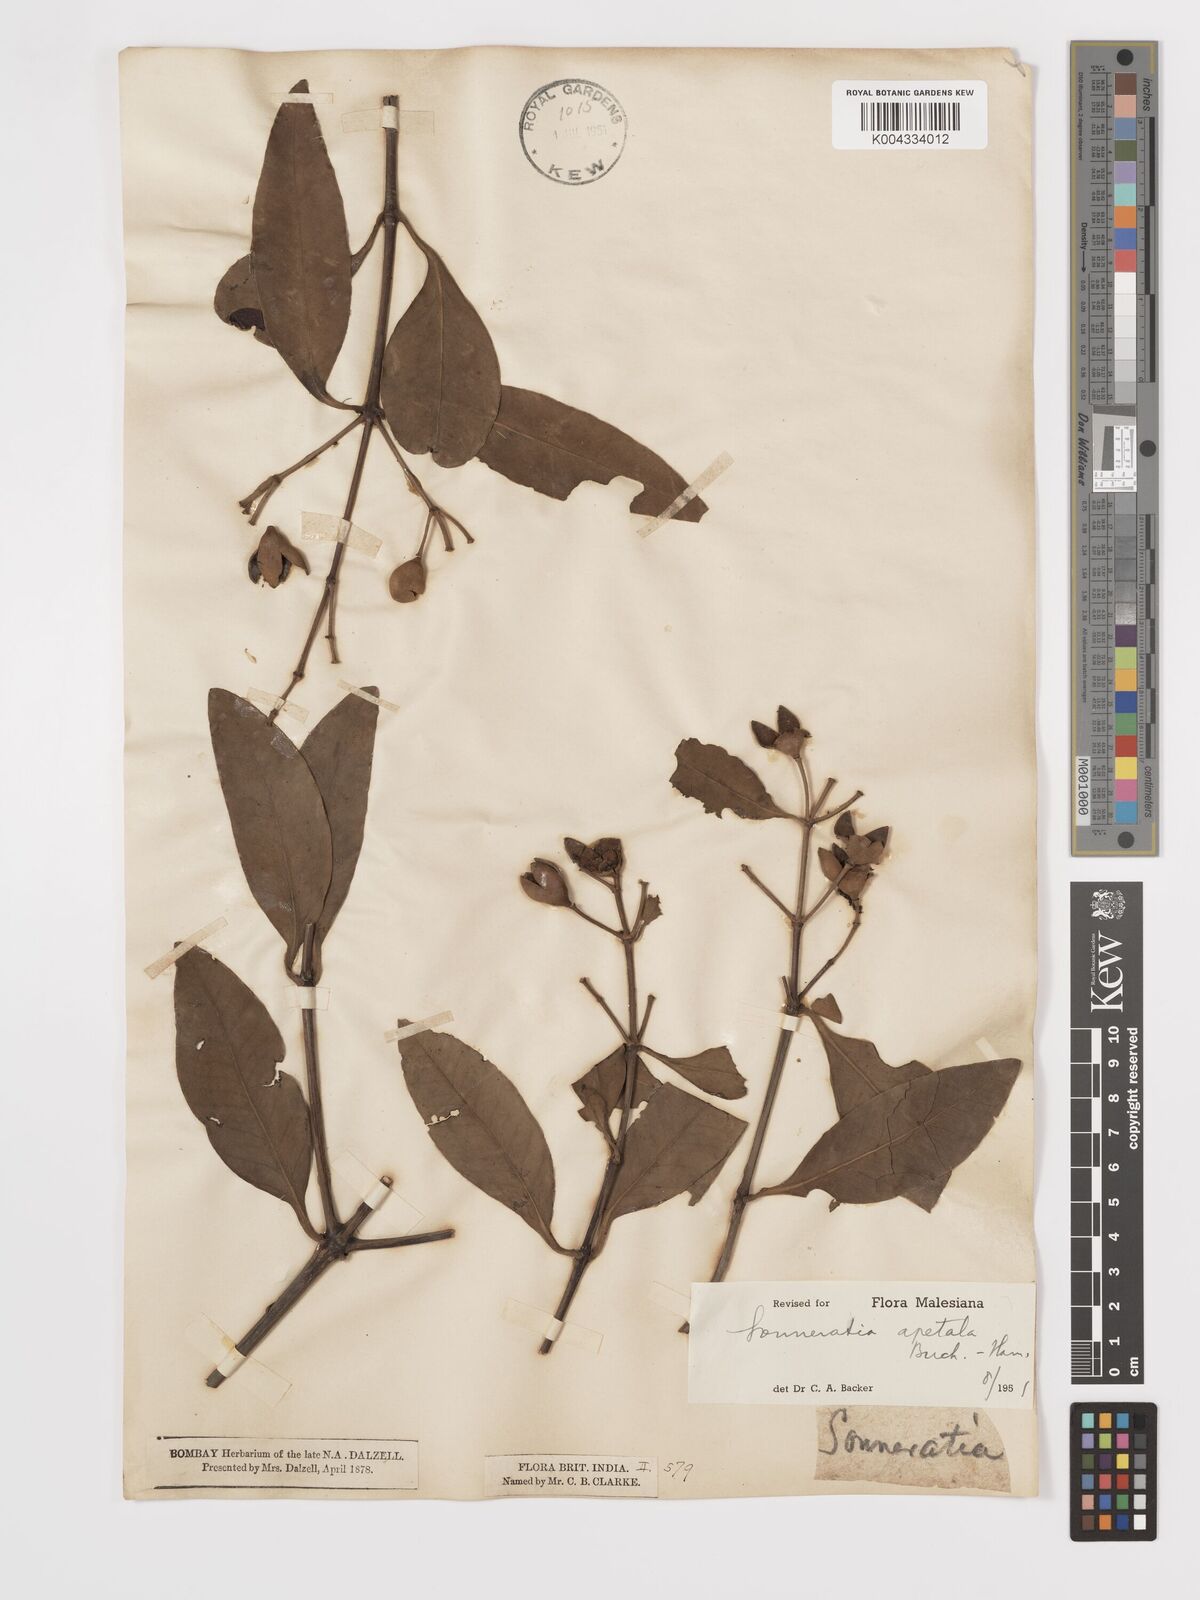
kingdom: Plantae
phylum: Tracheophyta
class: Magnoliopsida
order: Myrtales
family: Lythraceae
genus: Sonneratia
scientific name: Sonneratia apetala
